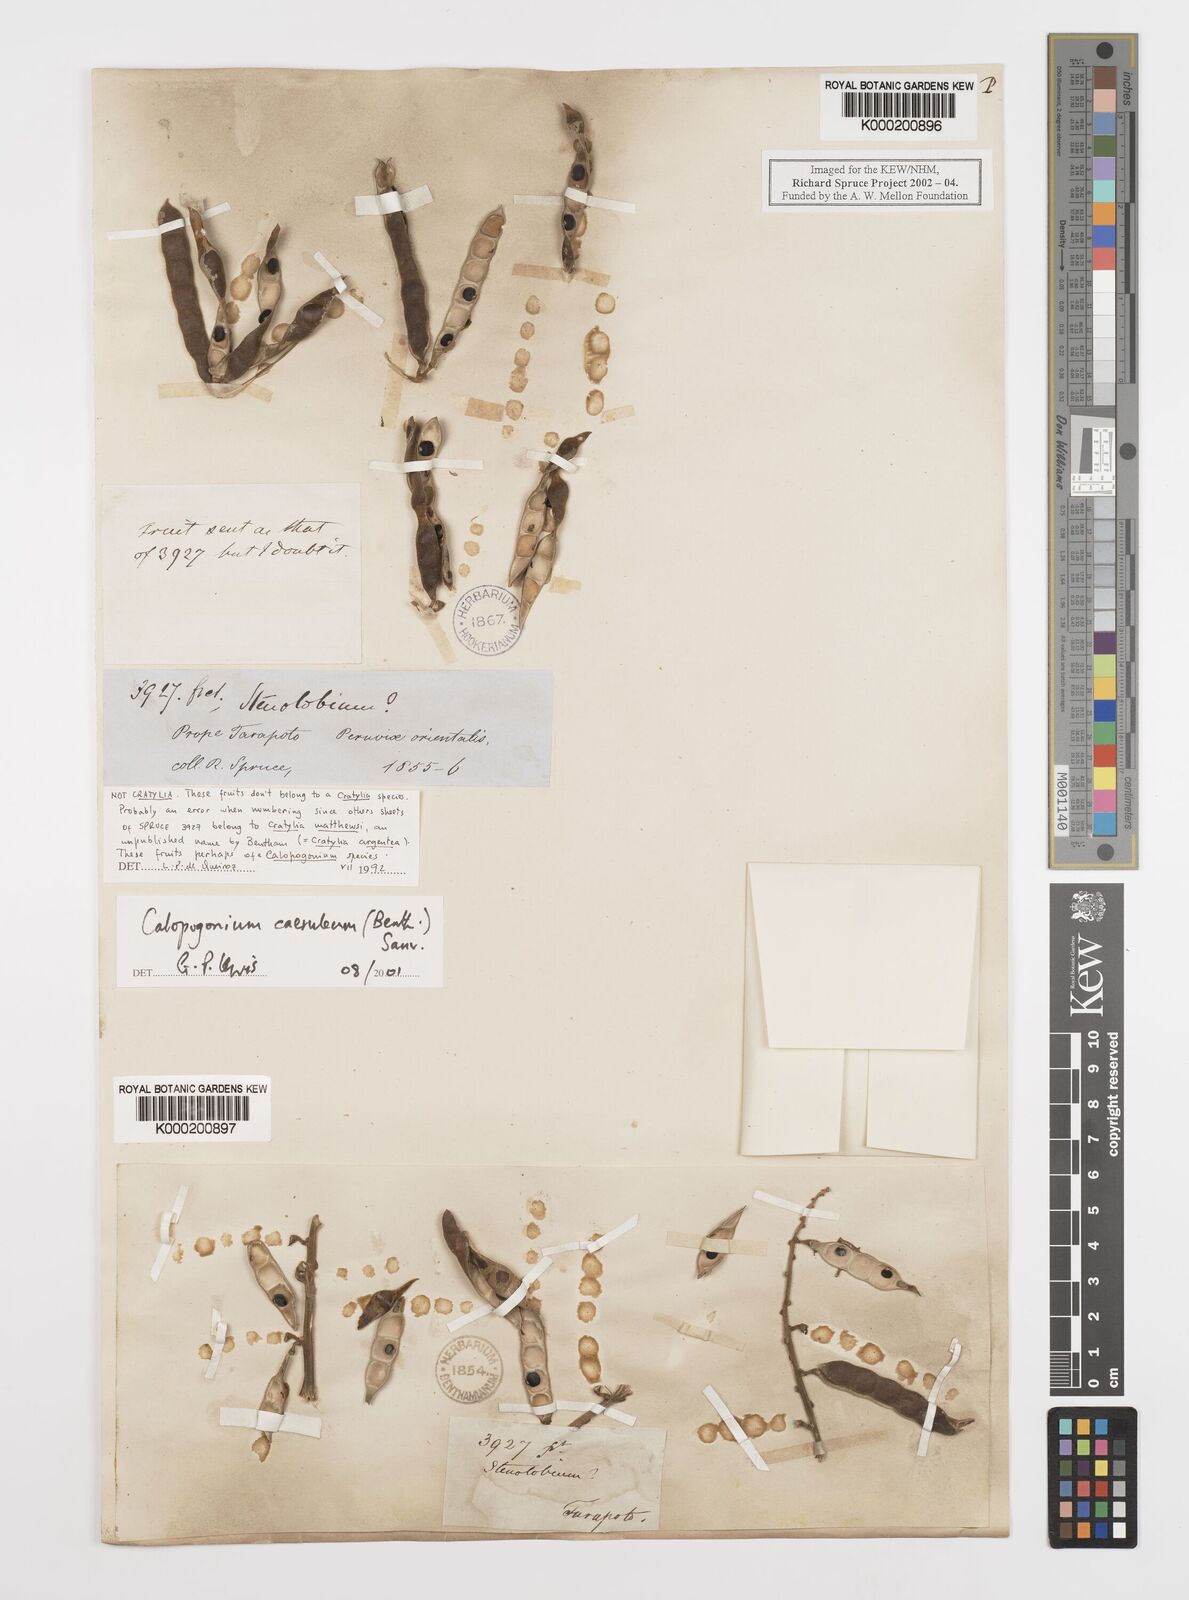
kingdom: Plantae
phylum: Tracheophyta
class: Magnoliopsida
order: Fabales
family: Fabaceae
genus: Calopogonium
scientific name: Calopogonium
